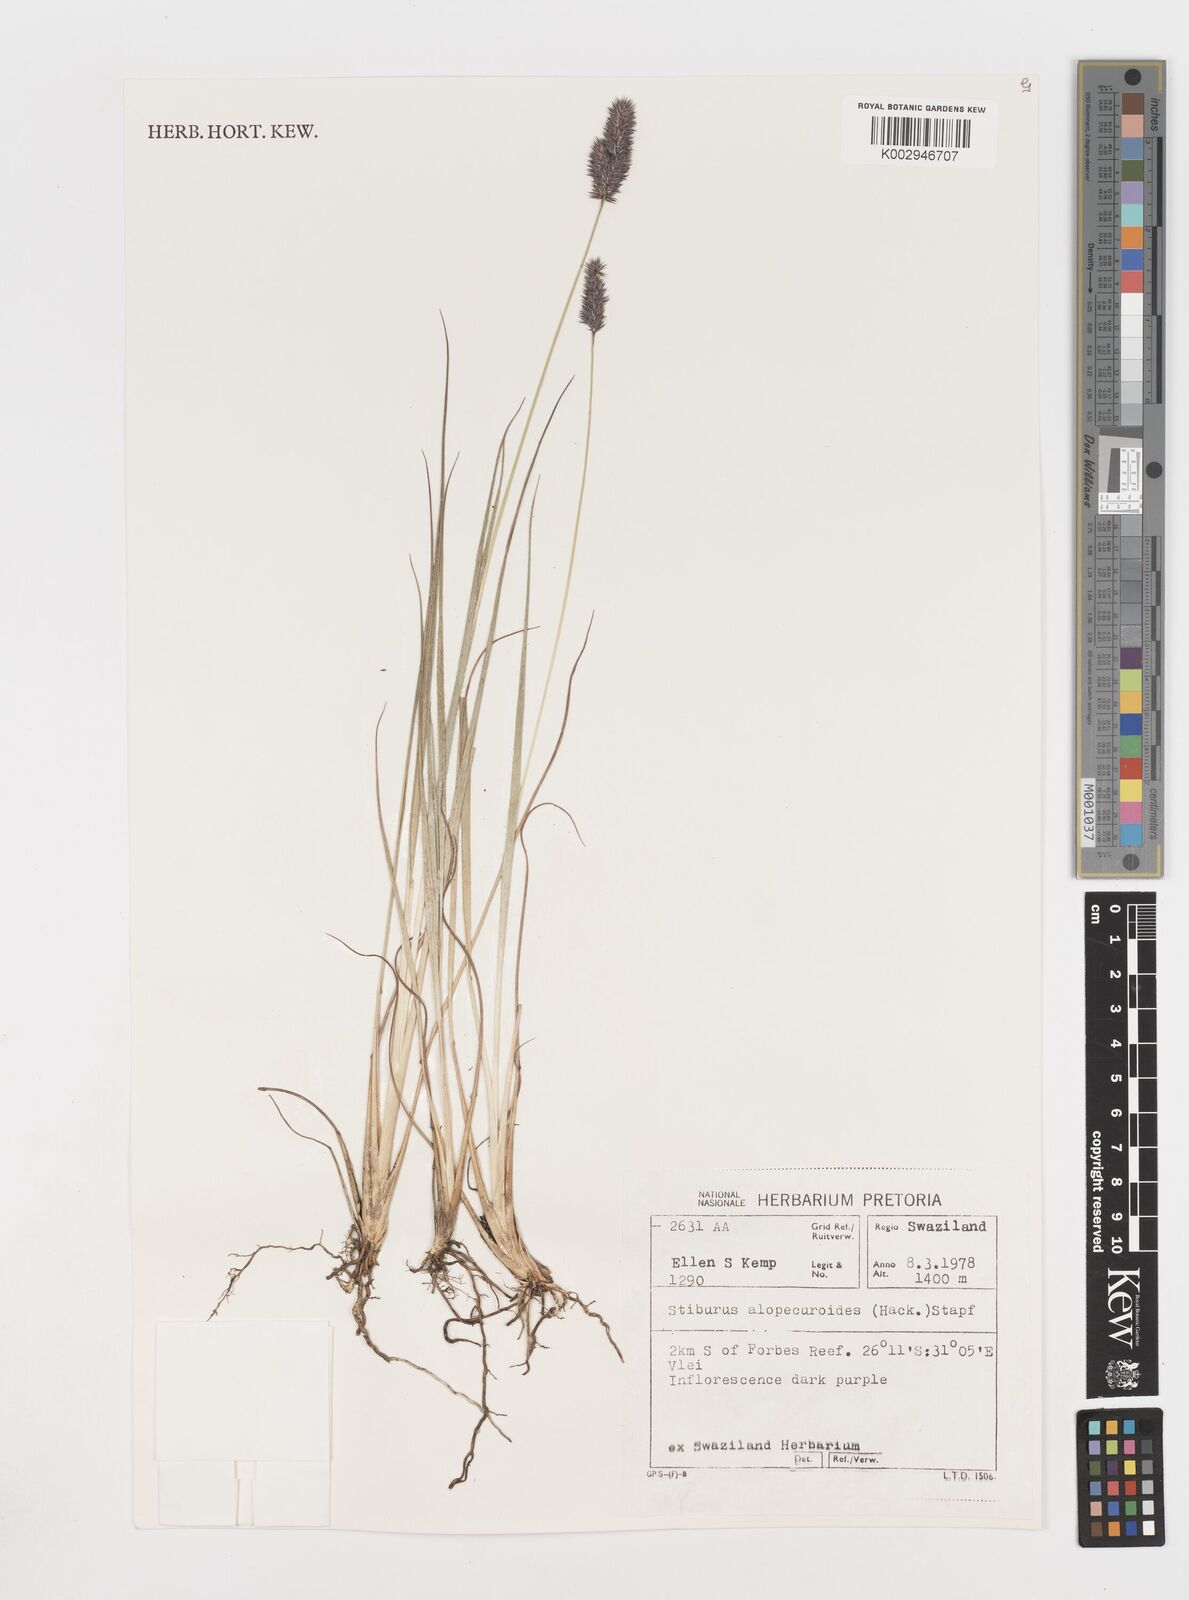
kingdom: Plantae
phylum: Tracheophyta
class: Liliopsida
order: Poales
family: Poaceae
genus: Stiburus
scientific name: Stiburus alopecuroides
